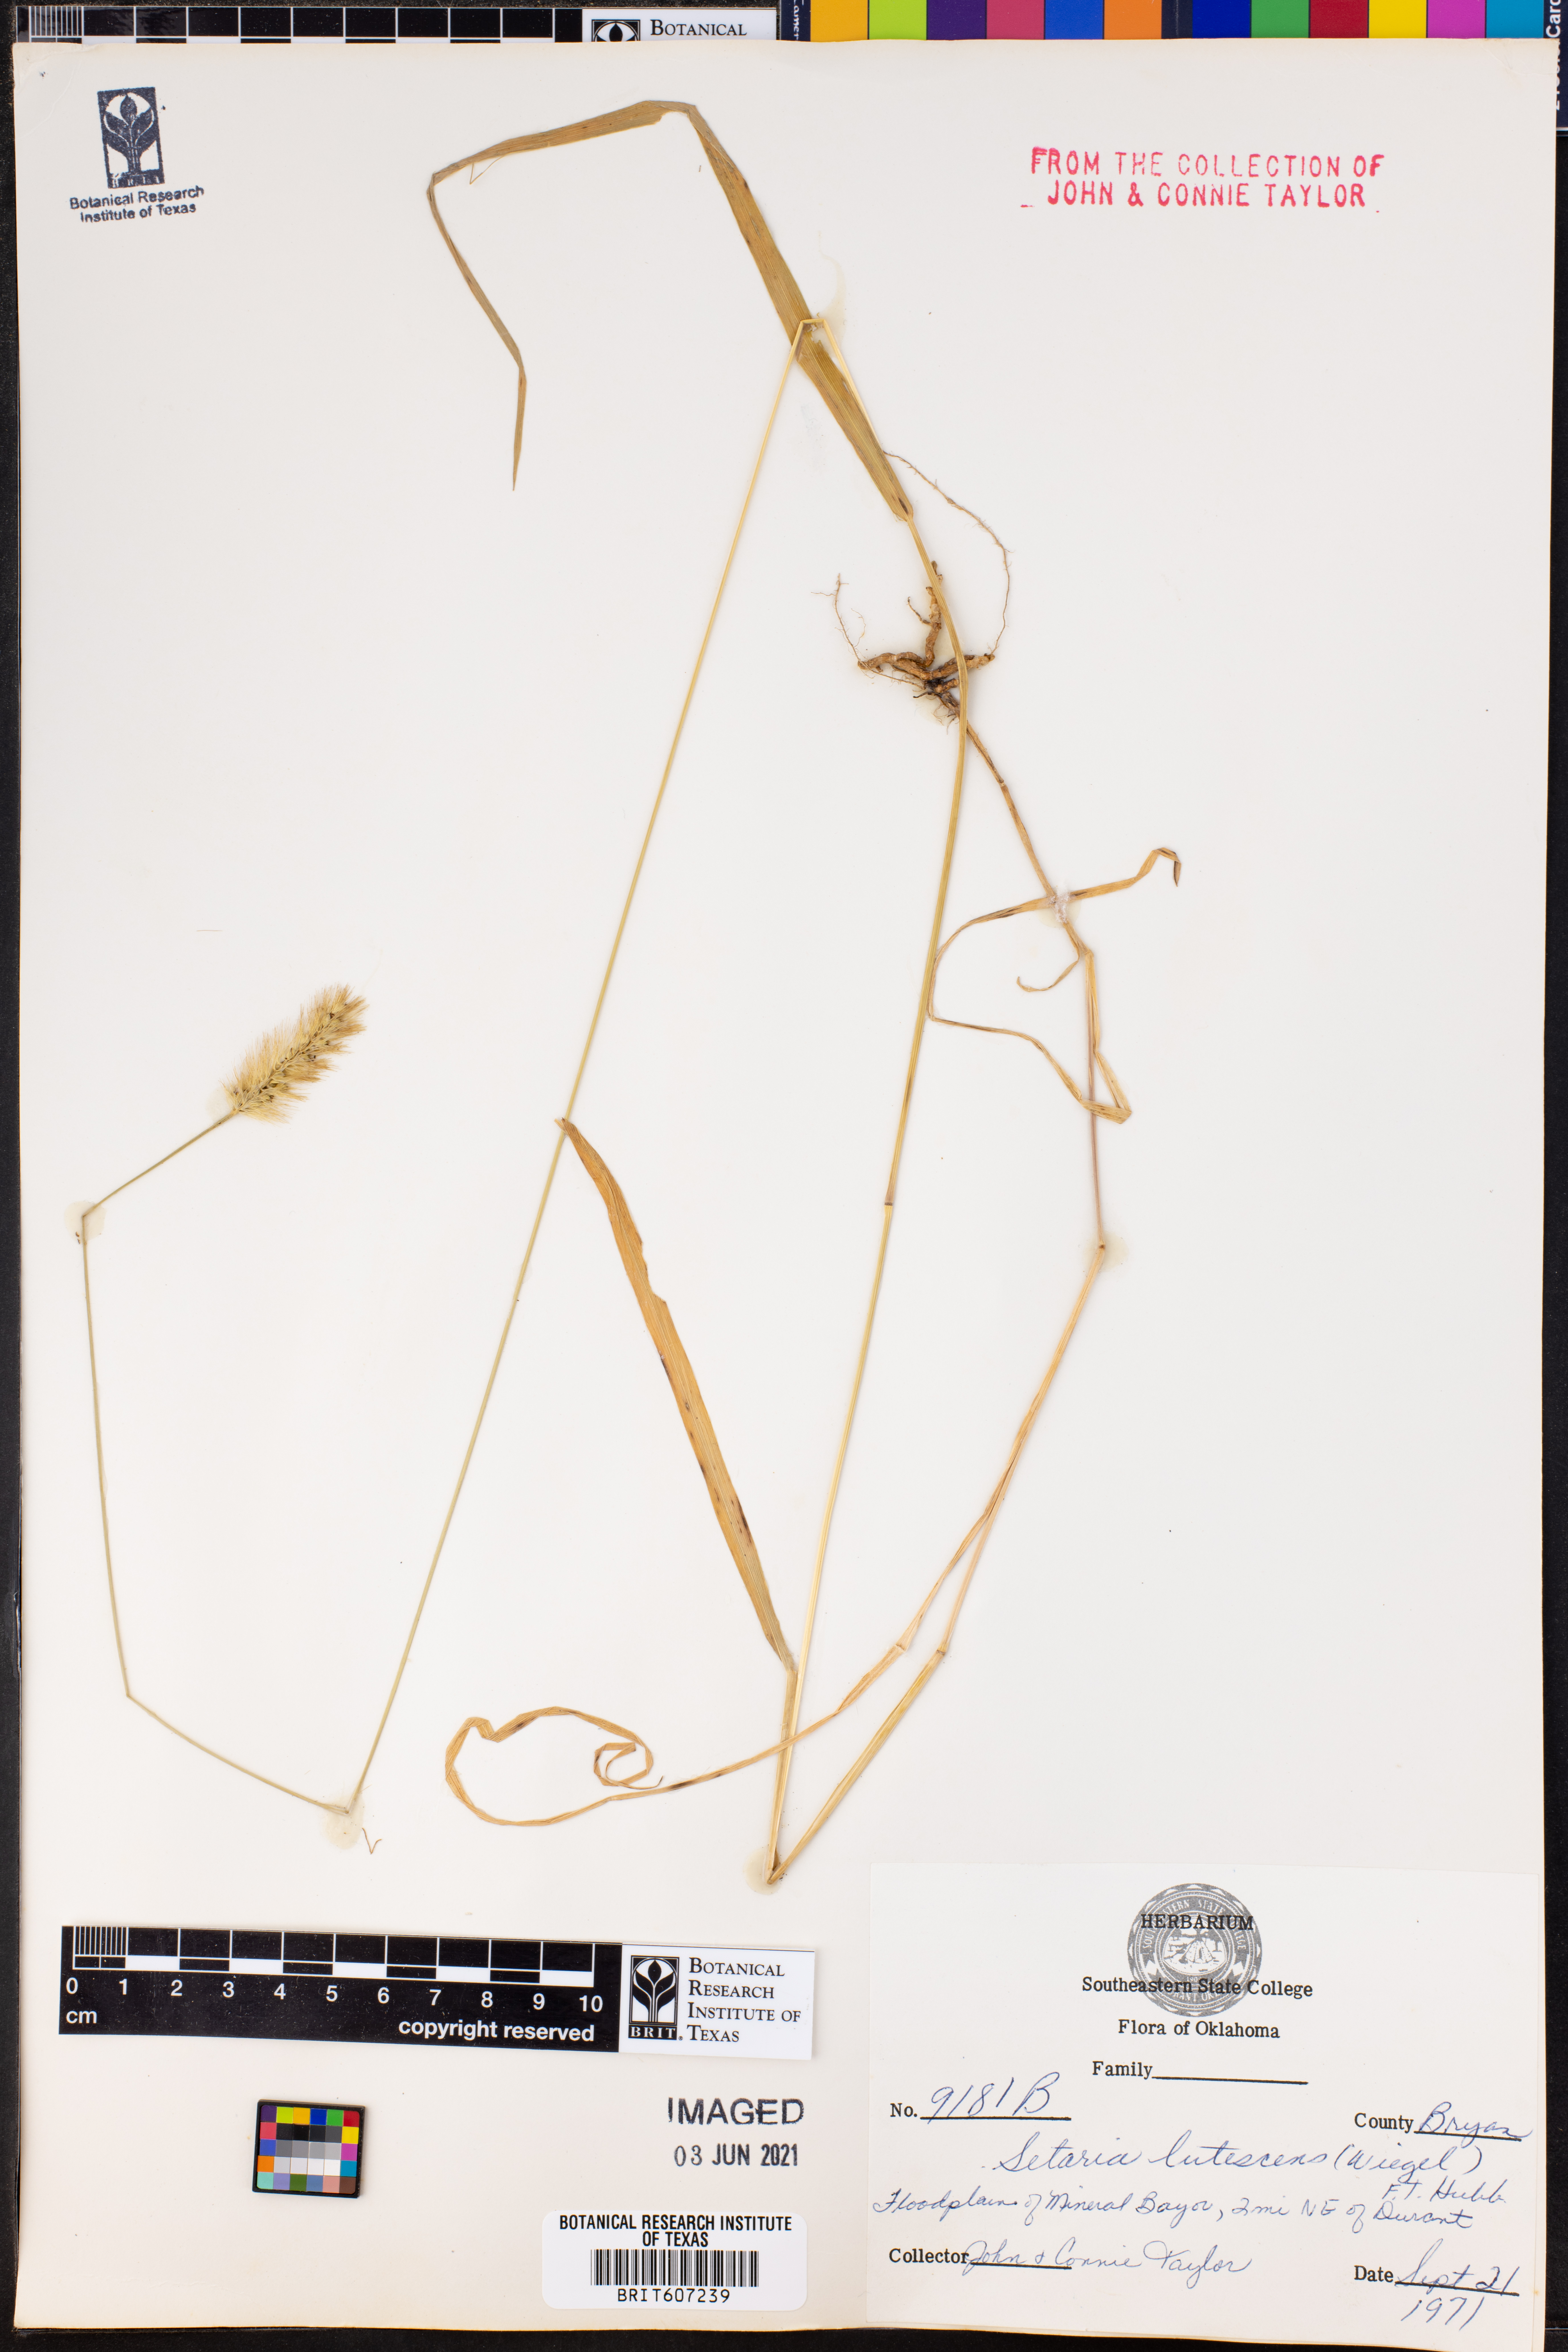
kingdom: Plantae
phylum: Tracheophyta
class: Liliopsida
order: Poales
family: Poaceae
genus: Cenchrus
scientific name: Cenchrus americanus
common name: Pearl millet
